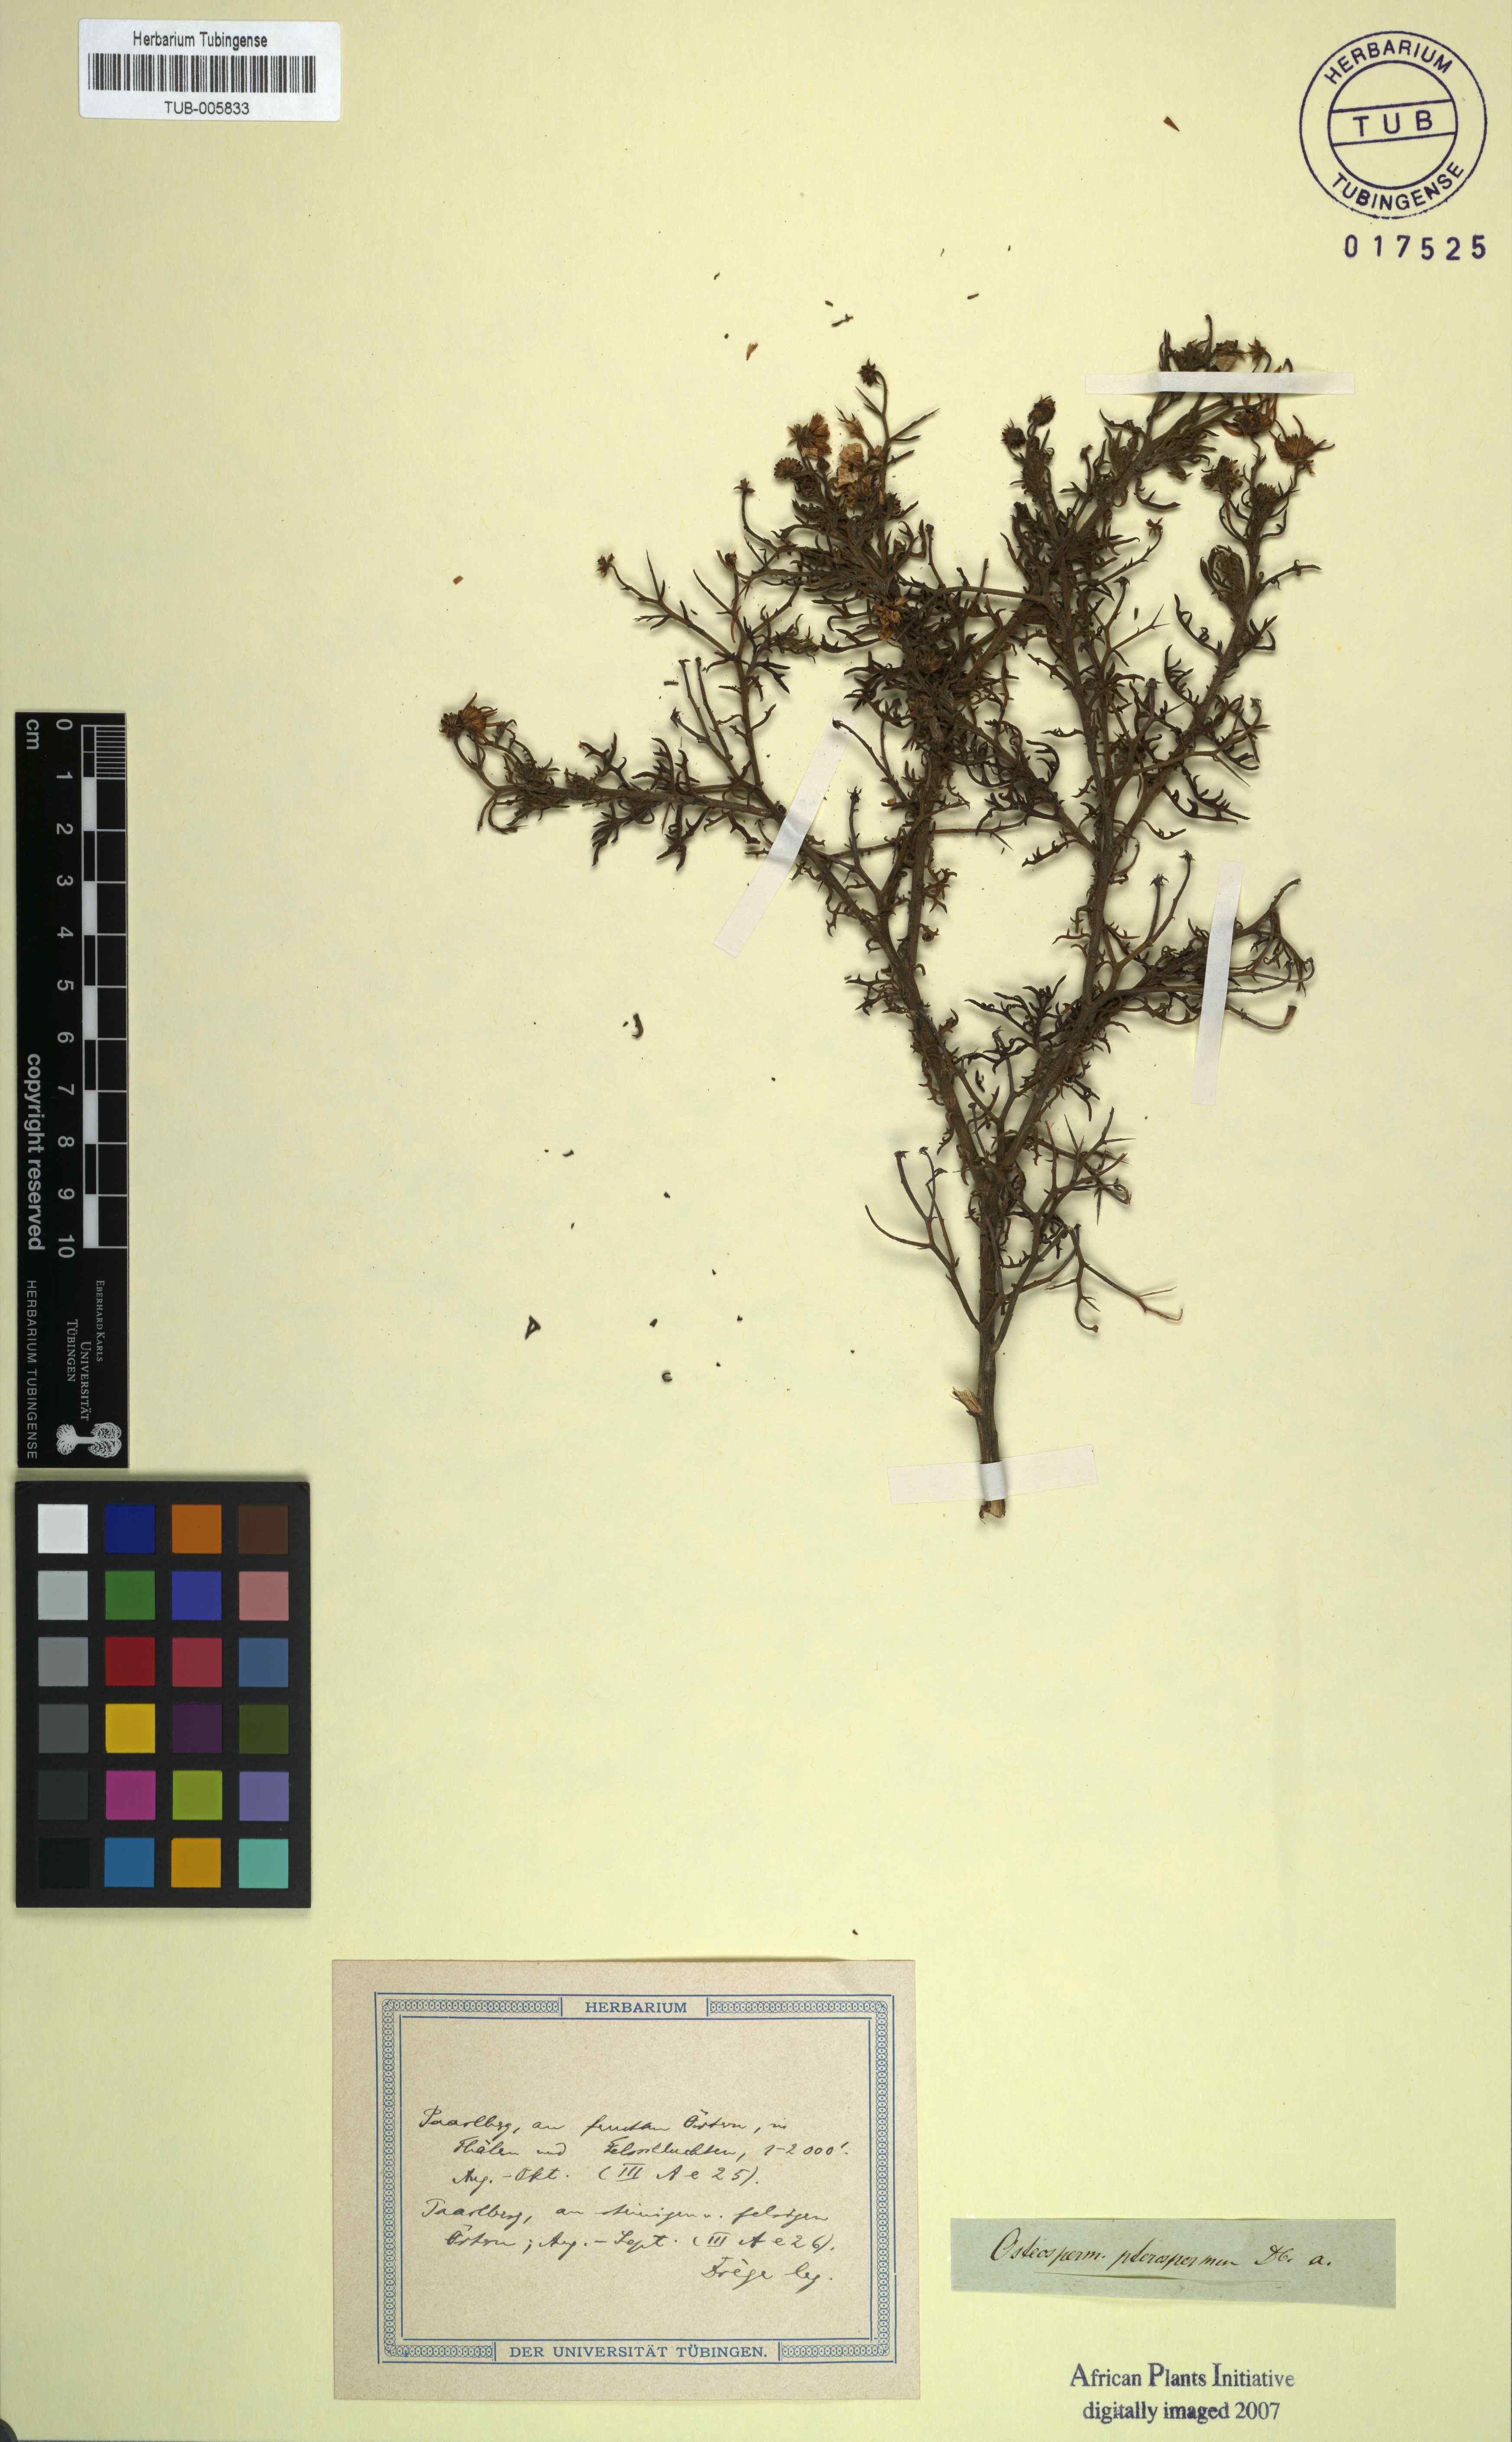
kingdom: Plantae
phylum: Tracheophyta
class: Magnoliopsida
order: Asterales
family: Asteraceae
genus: Osteospermum
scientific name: Osteospermum spinosum
